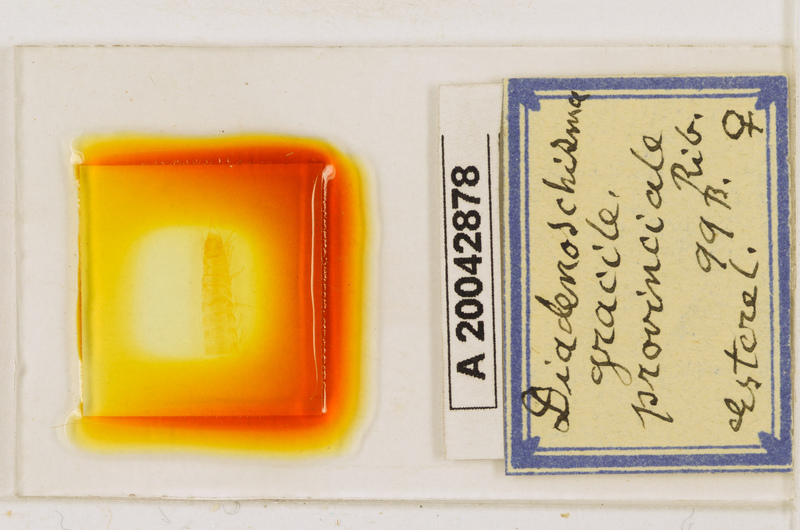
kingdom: Animalia
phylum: Arthropoda
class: Chilopoda
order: Geophilomorpha
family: Himantariidae
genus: Stigmatogaster
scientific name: Stigmatogaster
